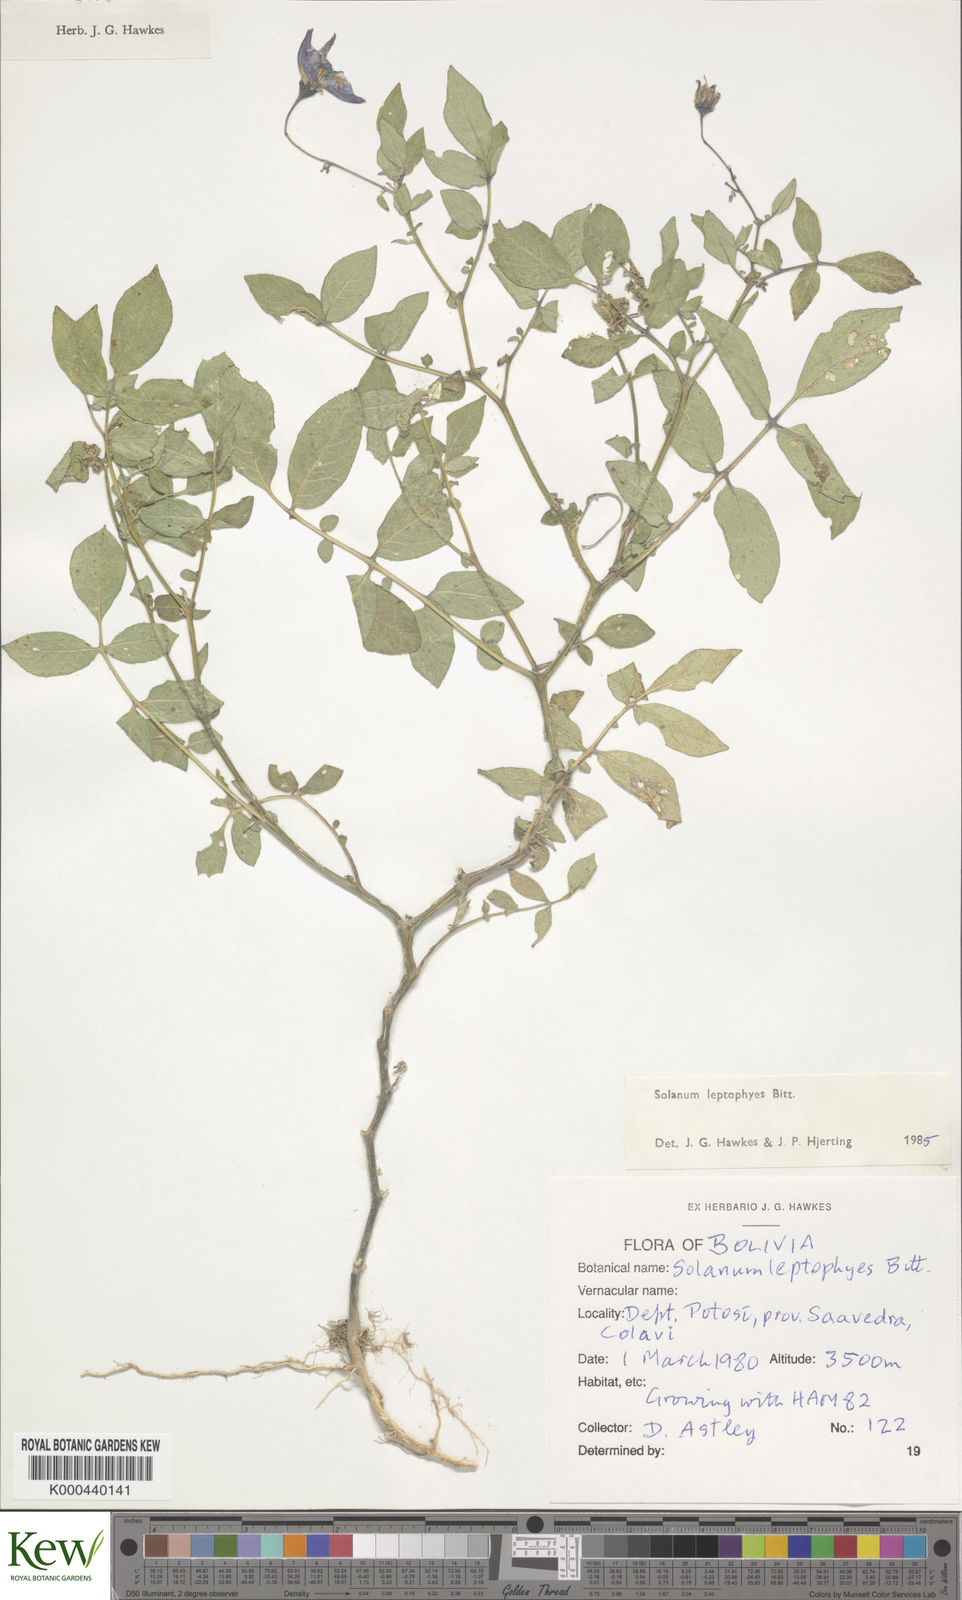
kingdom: Plantae
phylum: Tracheophyta
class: Magnoliopsida
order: Solanales
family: Solanaceae
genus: Solanum
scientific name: Solanum brevicaule
